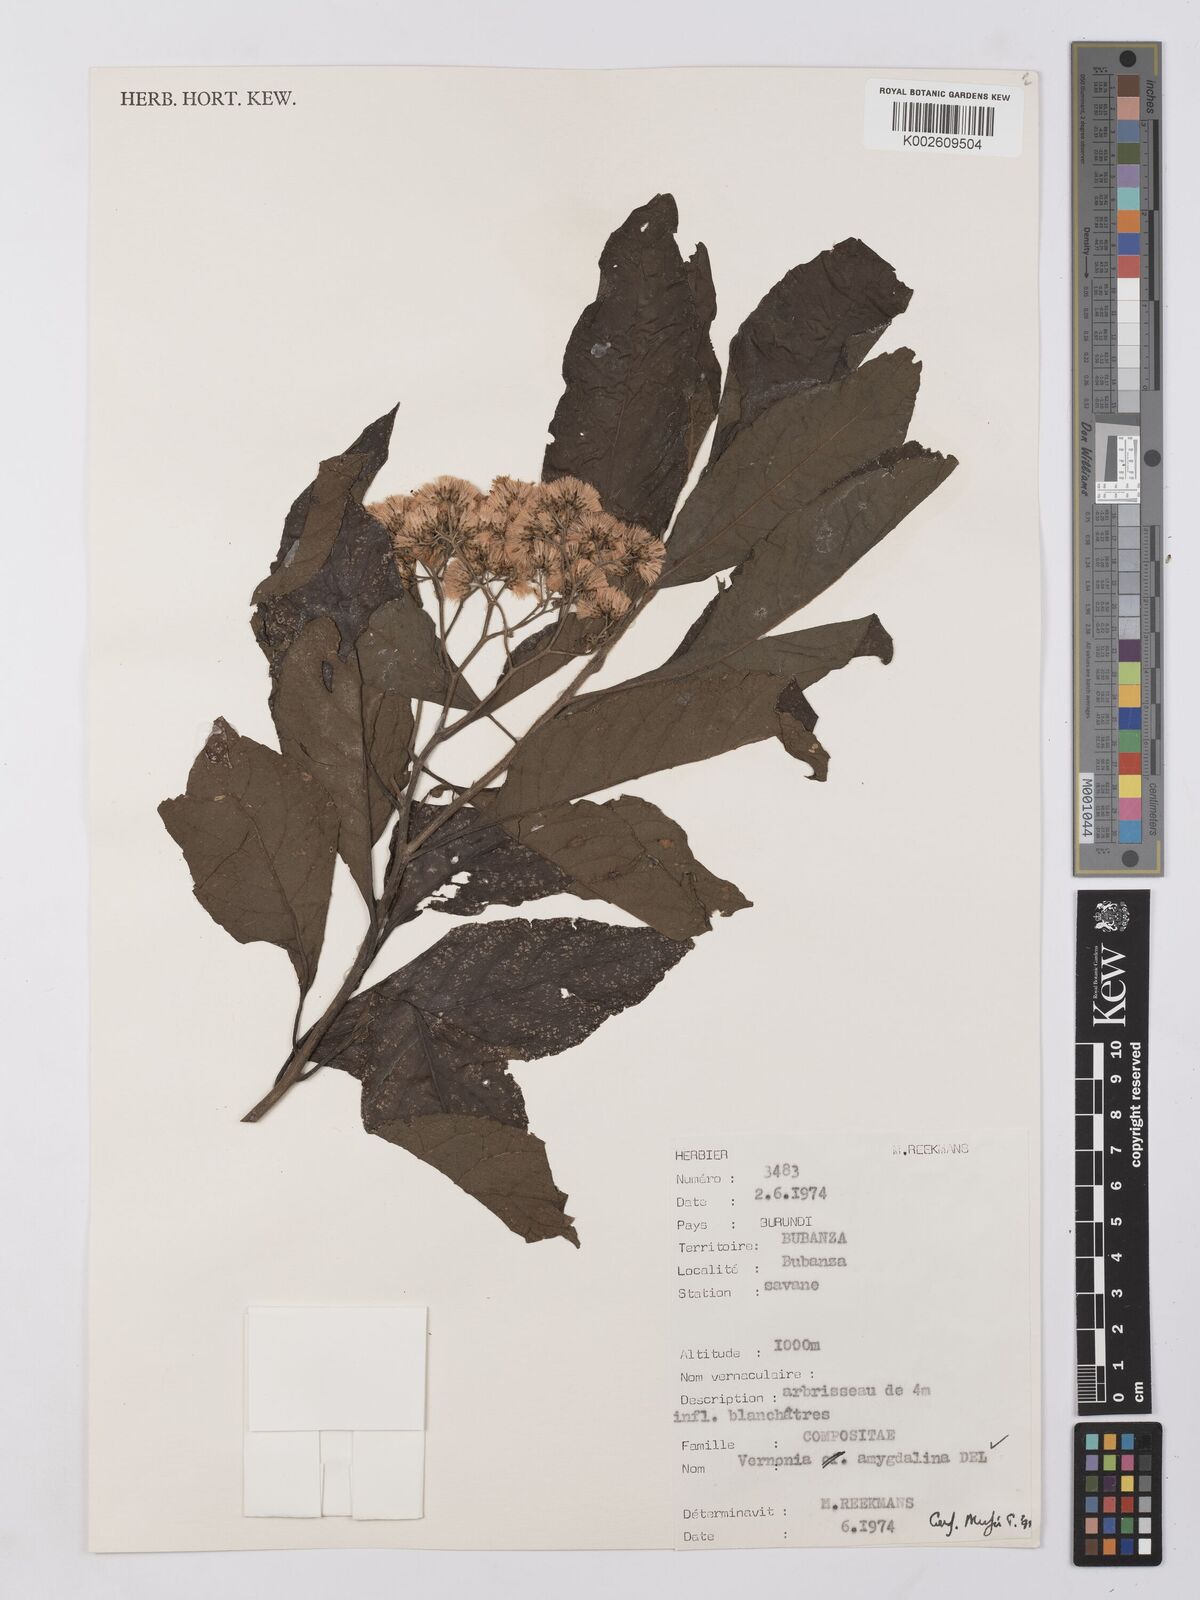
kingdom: Plantae
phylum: Tracheophyta
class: Magnoliopsida
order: Asterales
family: Asteraceae
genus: Vernonia
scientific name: Vernonia
